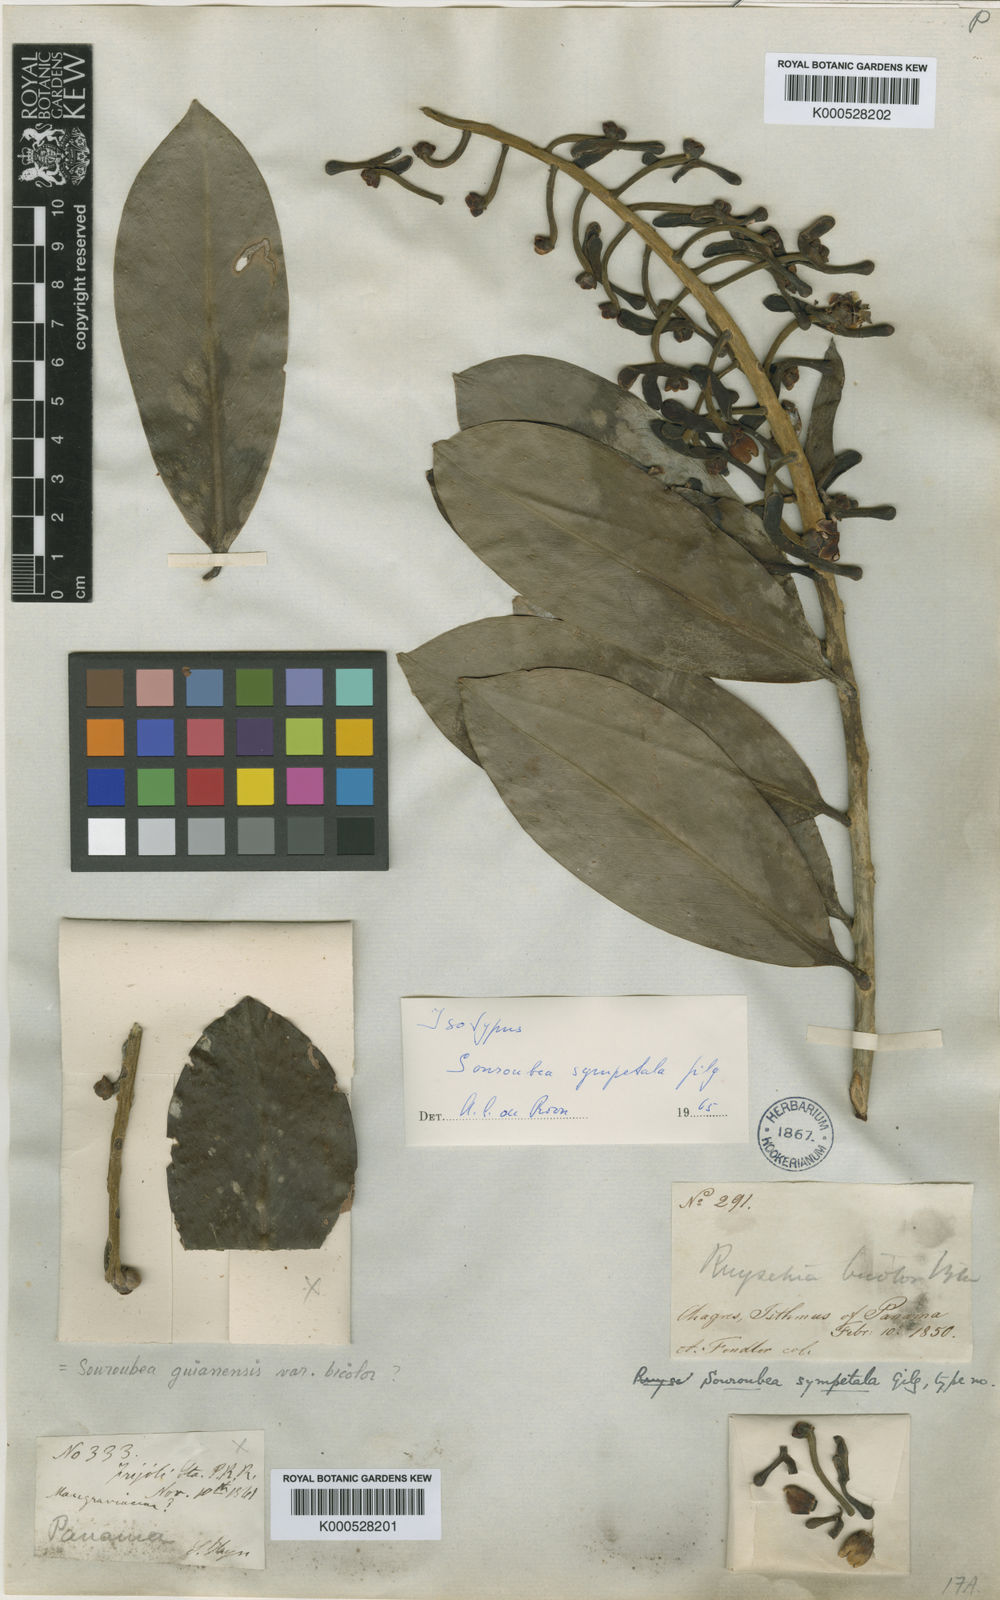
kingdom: Plantae
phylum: Tracheophyta
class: Magnoliopsida
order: Ericales
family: Marcgraviaceae
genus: Souroubea
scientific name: Souroubea bicolor
